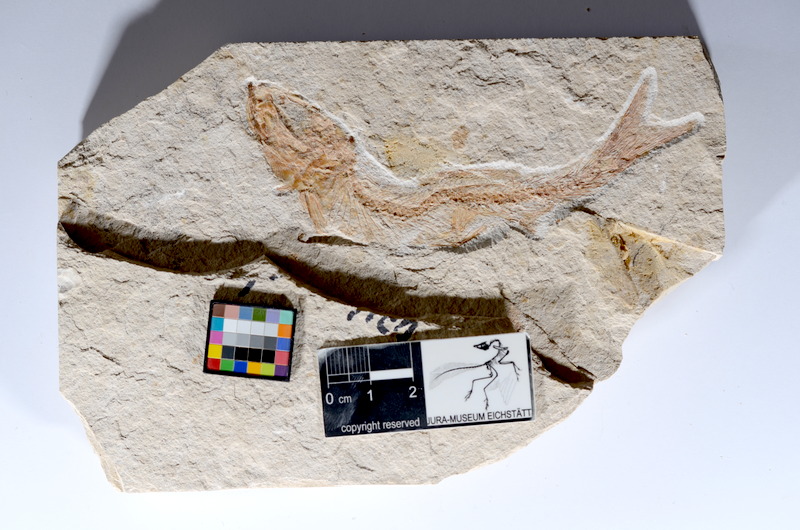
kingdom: Animalia
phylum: Chordata
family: Ascalaboidae
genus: Tharsis
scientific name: Tharsis dubius
